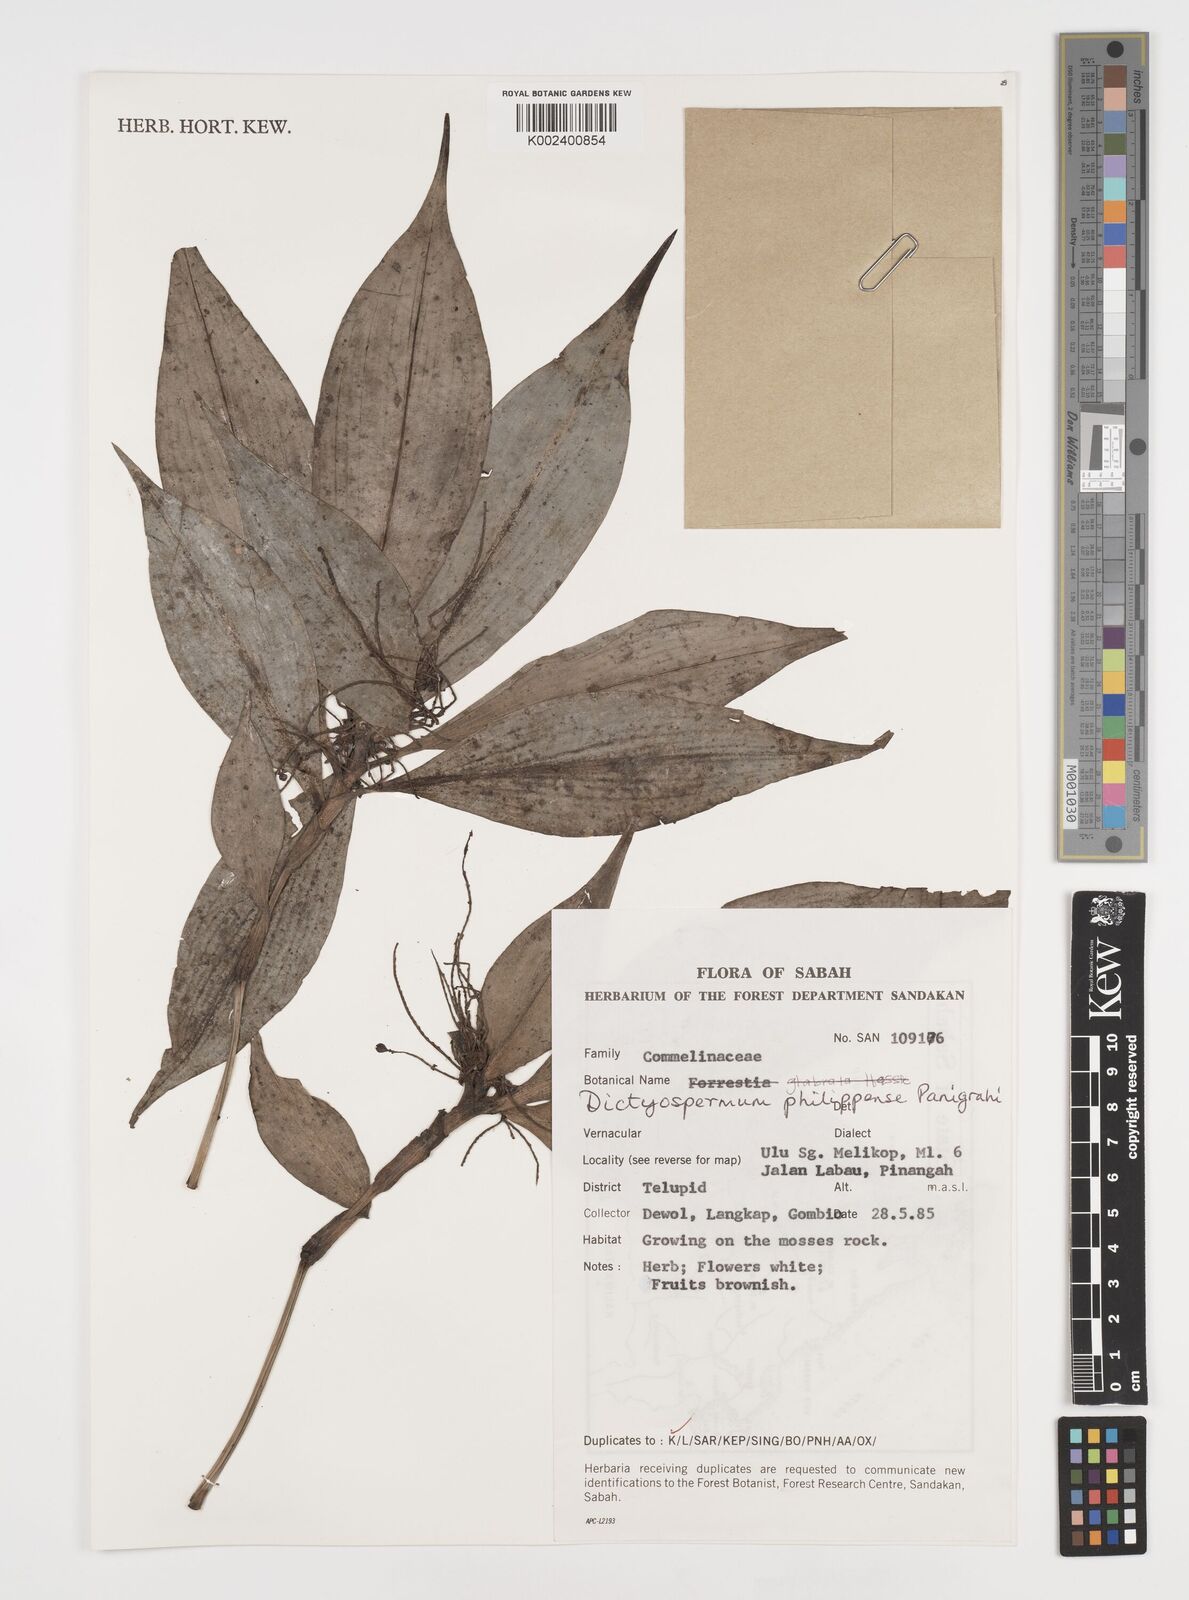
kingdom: Plantae
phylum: Tracheophyta
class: Liliopsida
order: Commelinales
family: Commelinaceae
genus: Tricarpelema
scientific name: Tricarpelema philippense
